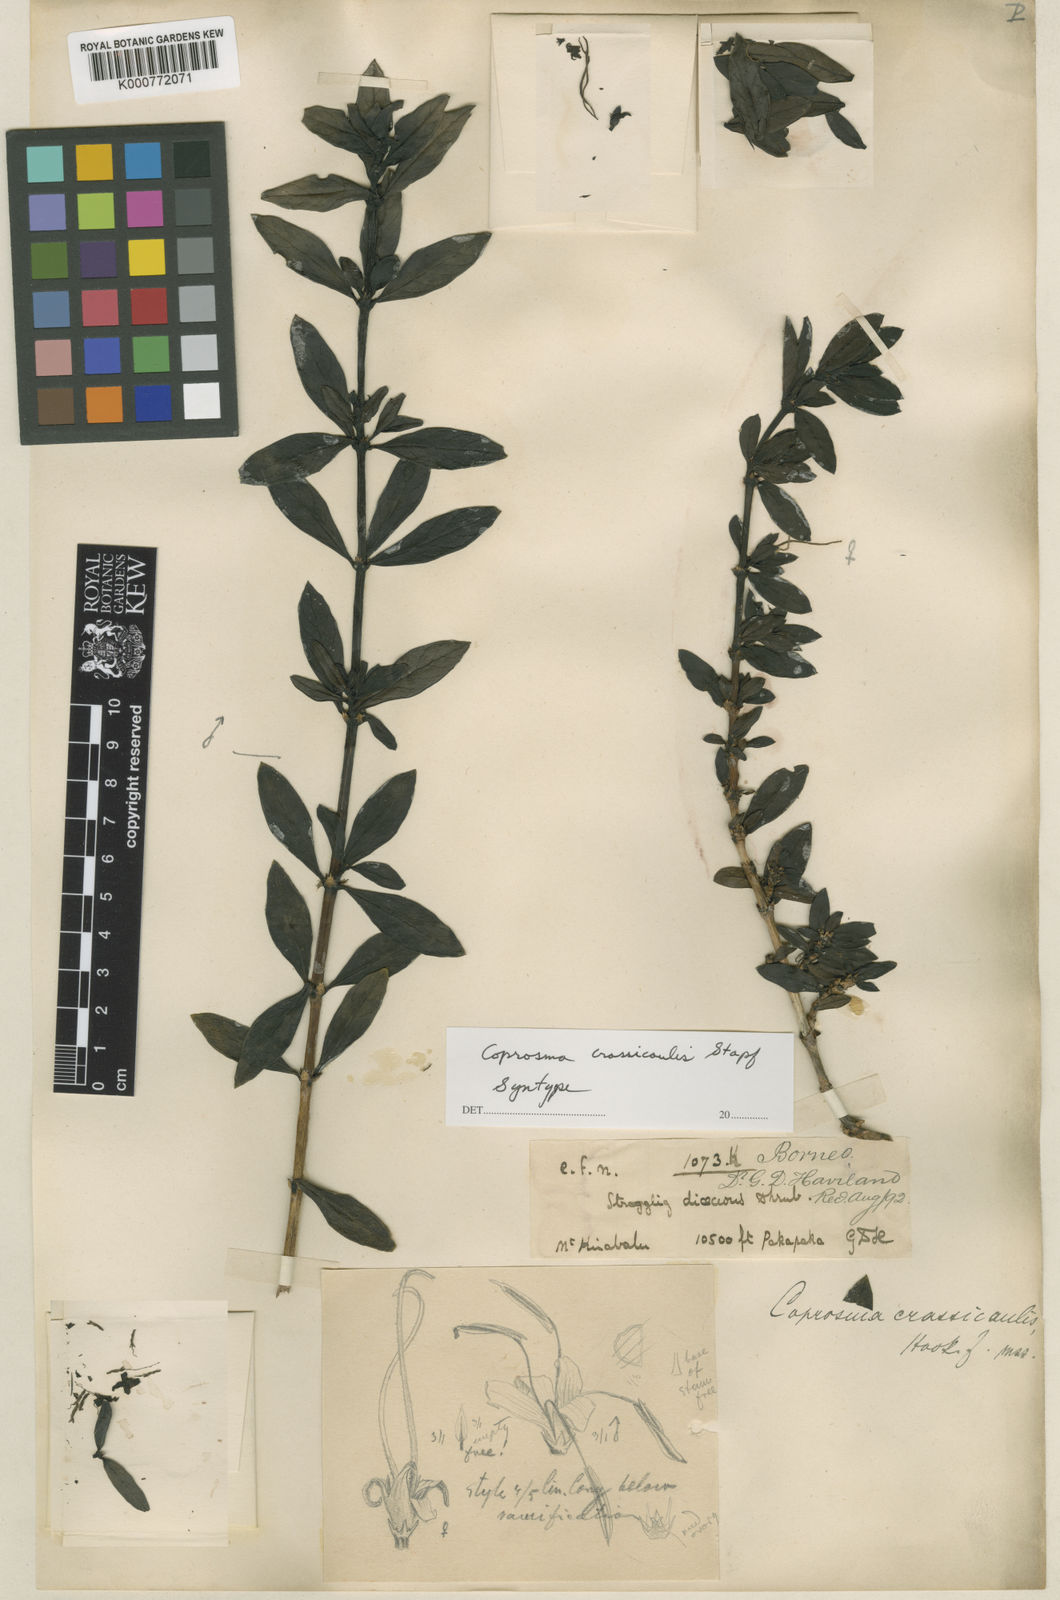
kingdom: Plantae
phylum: Tracheophyta
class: Magnoliopsida
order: Gentianales
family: Rubiaceae
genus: Coprosma
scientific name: Coprosma hookeri
